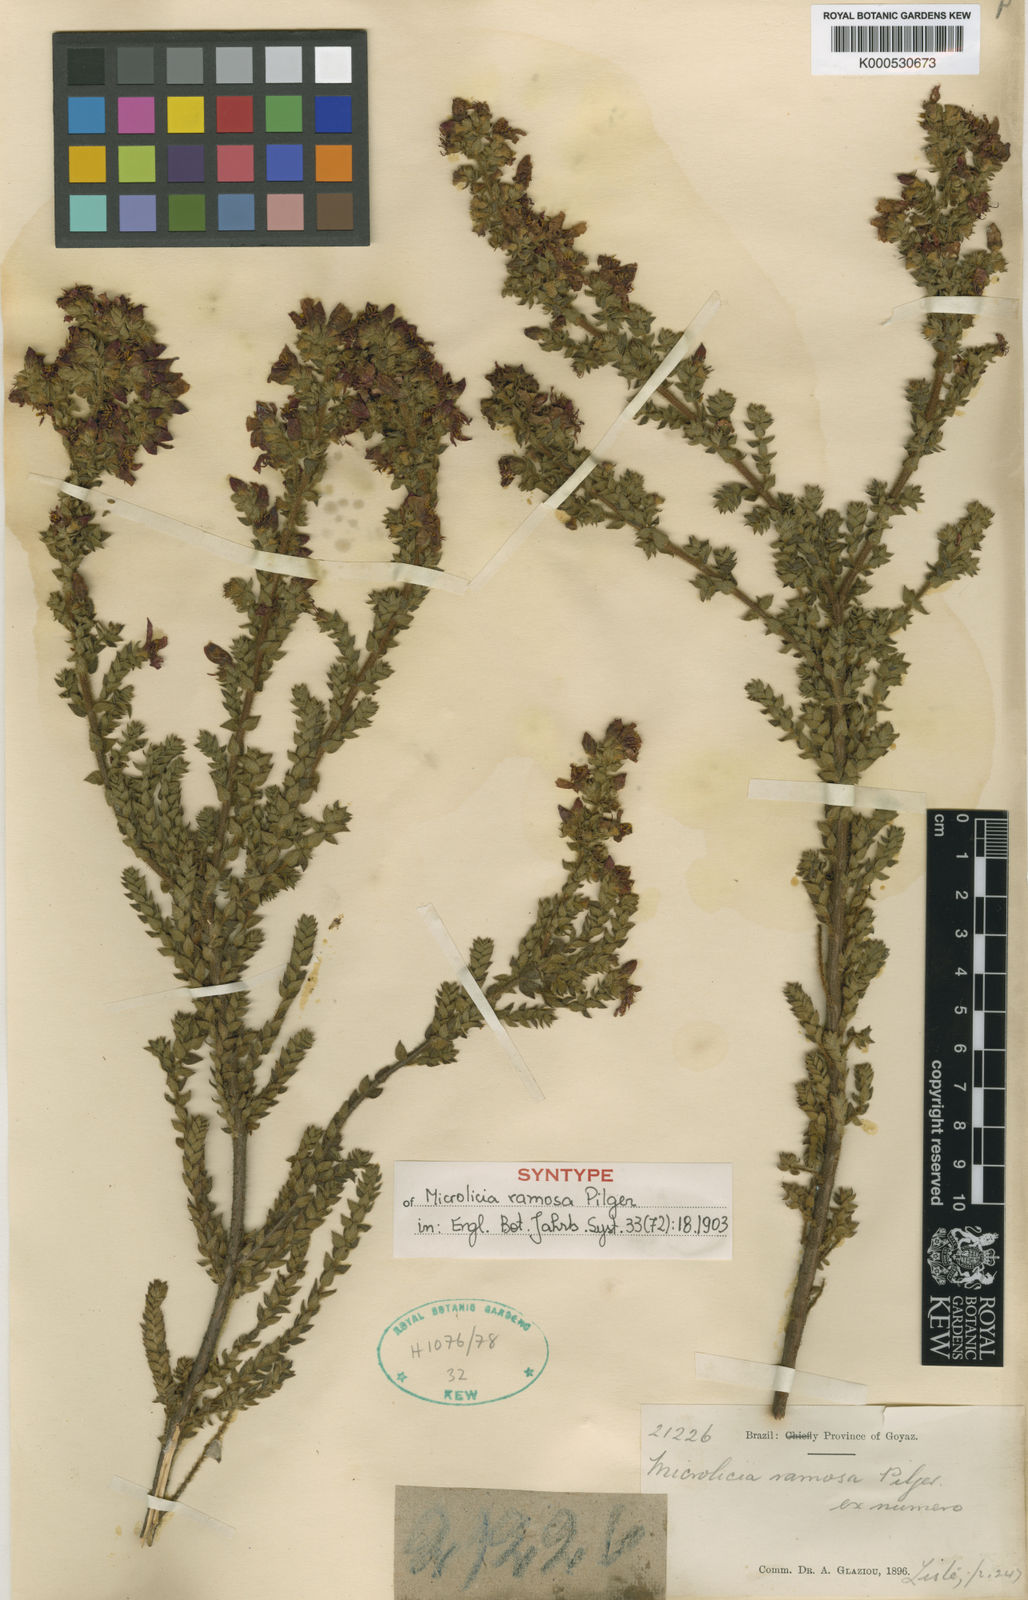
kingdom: Plantae
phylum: Tracheophyta
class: Magnoliopsida
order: Myrtales
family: Melastomataceae
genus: Microlicia
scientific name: Microlicia ramosa
